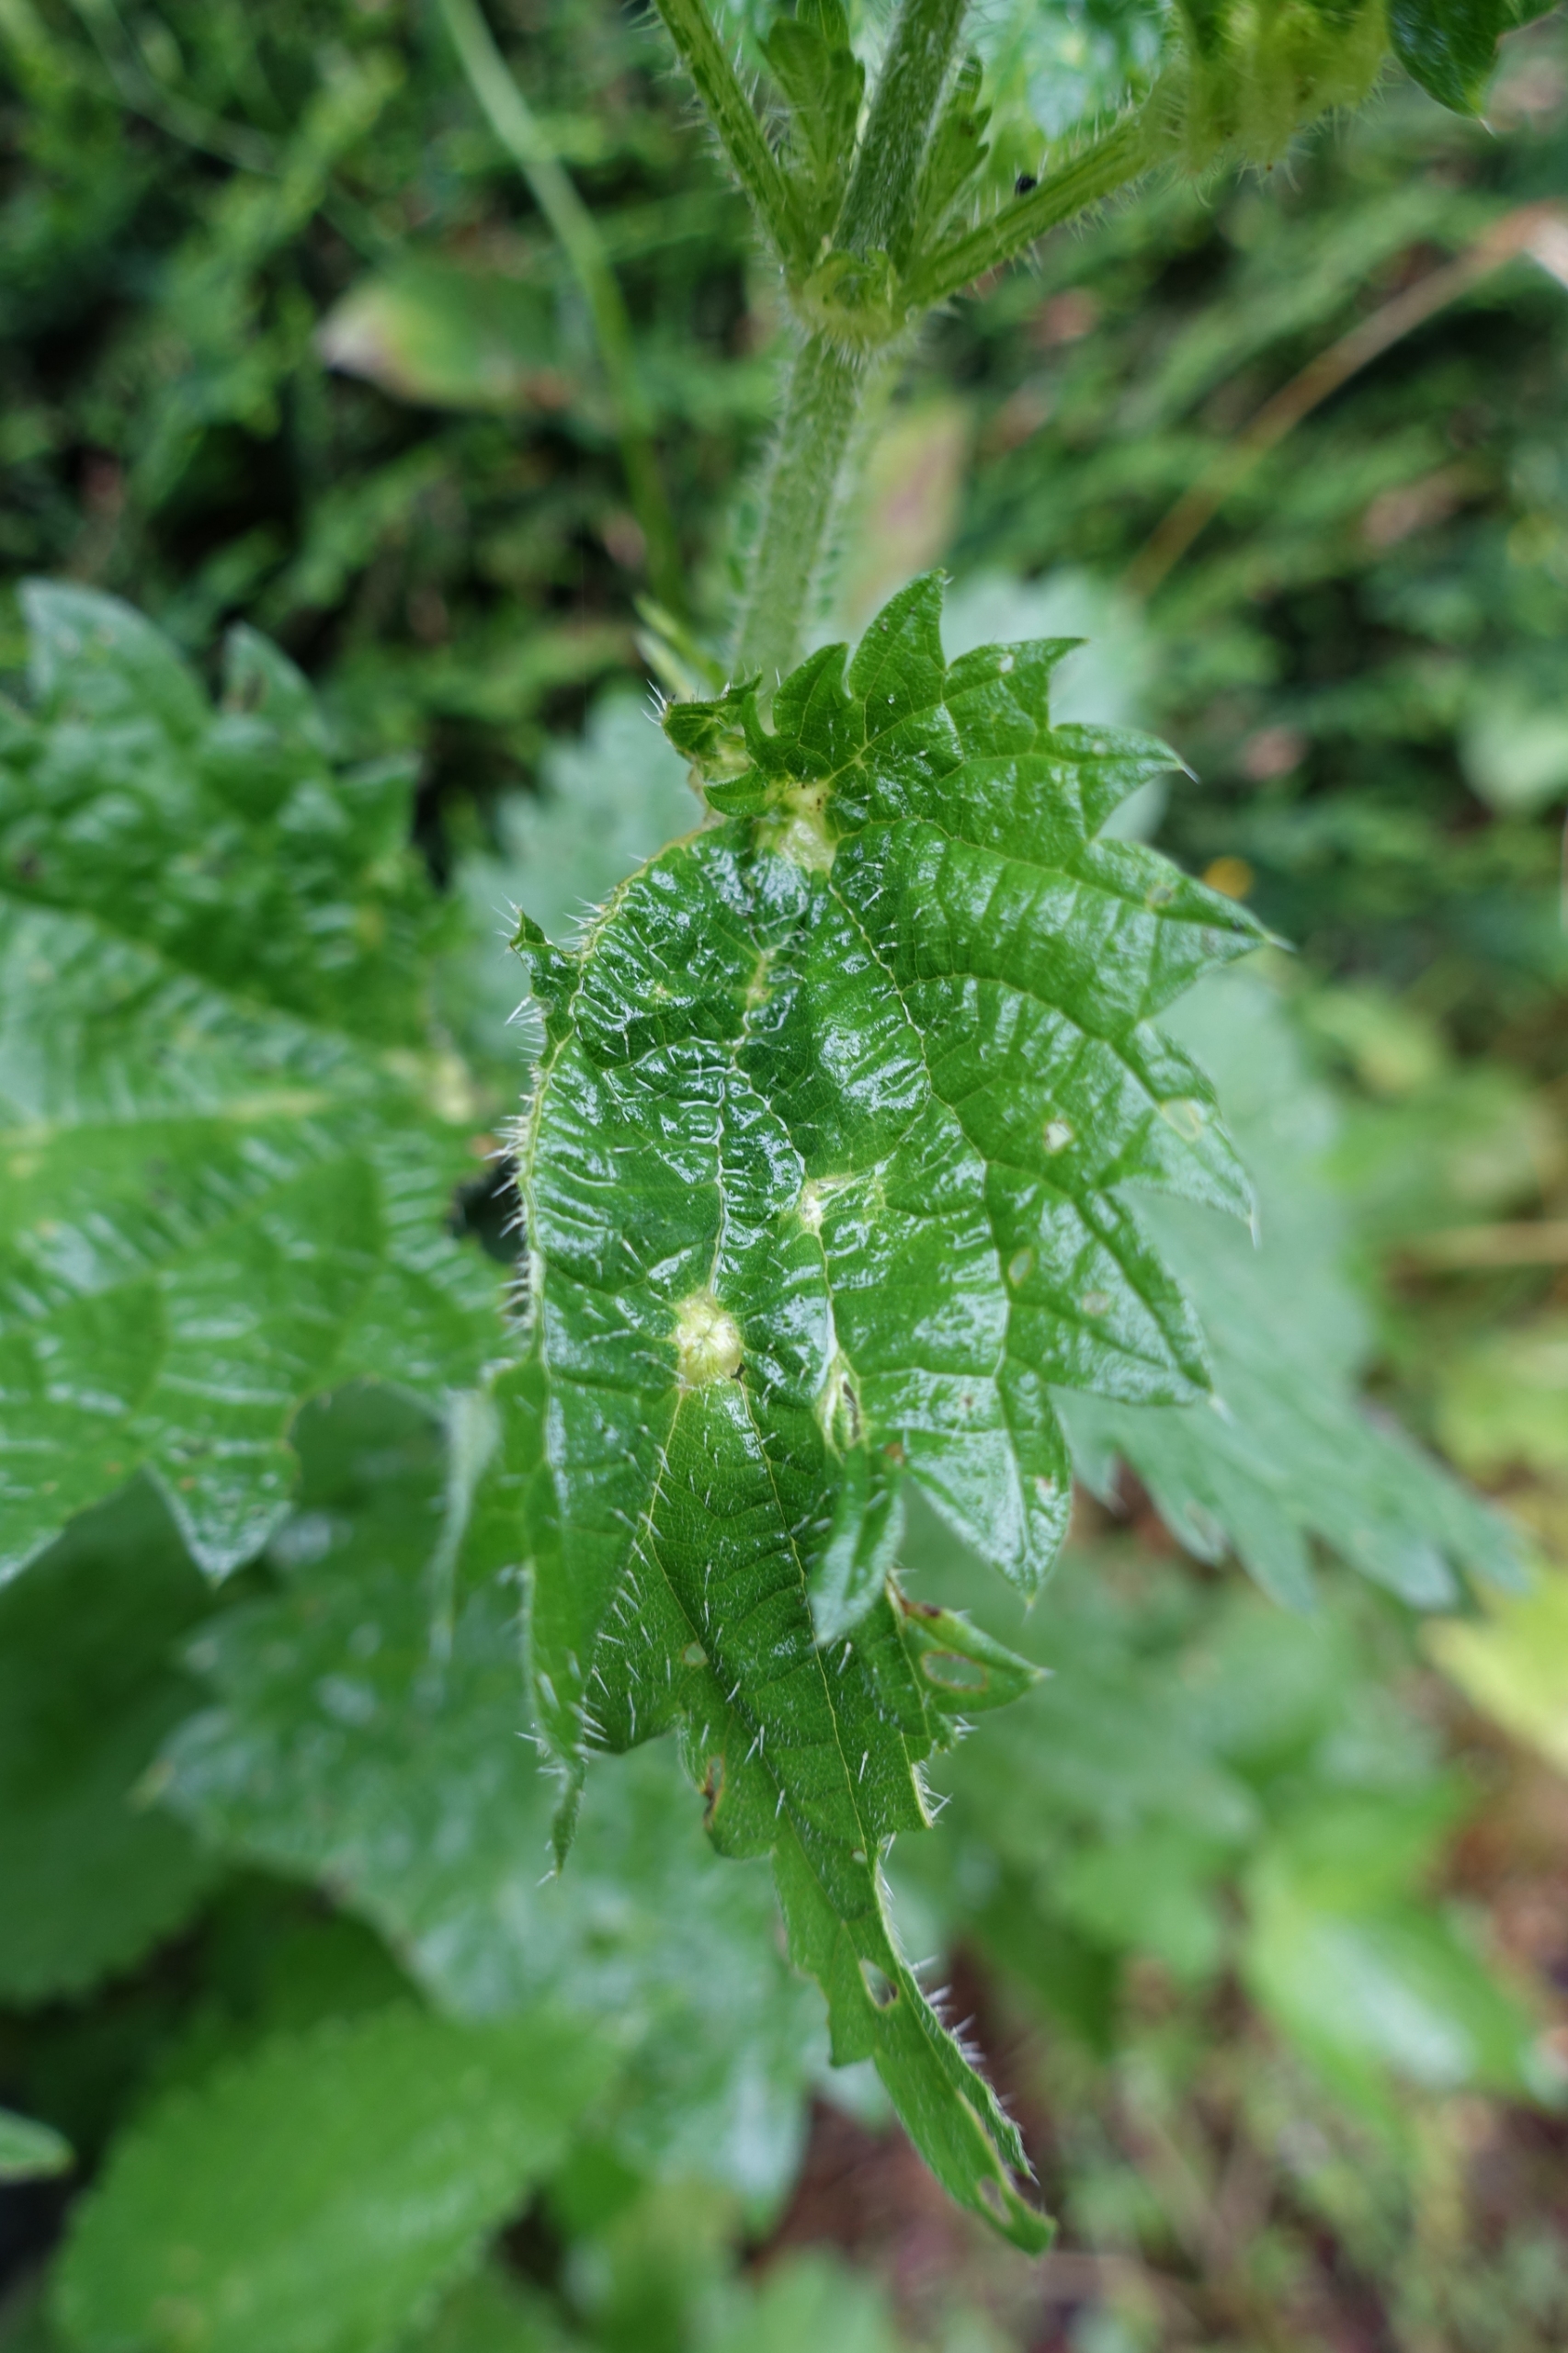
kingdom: Animalia
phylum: Arthropoda
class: Insecta
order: Diptera
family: Cecidomyiidae
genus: Dasineura
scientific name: Dasineura urticae
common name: Nældepunggalmyg
